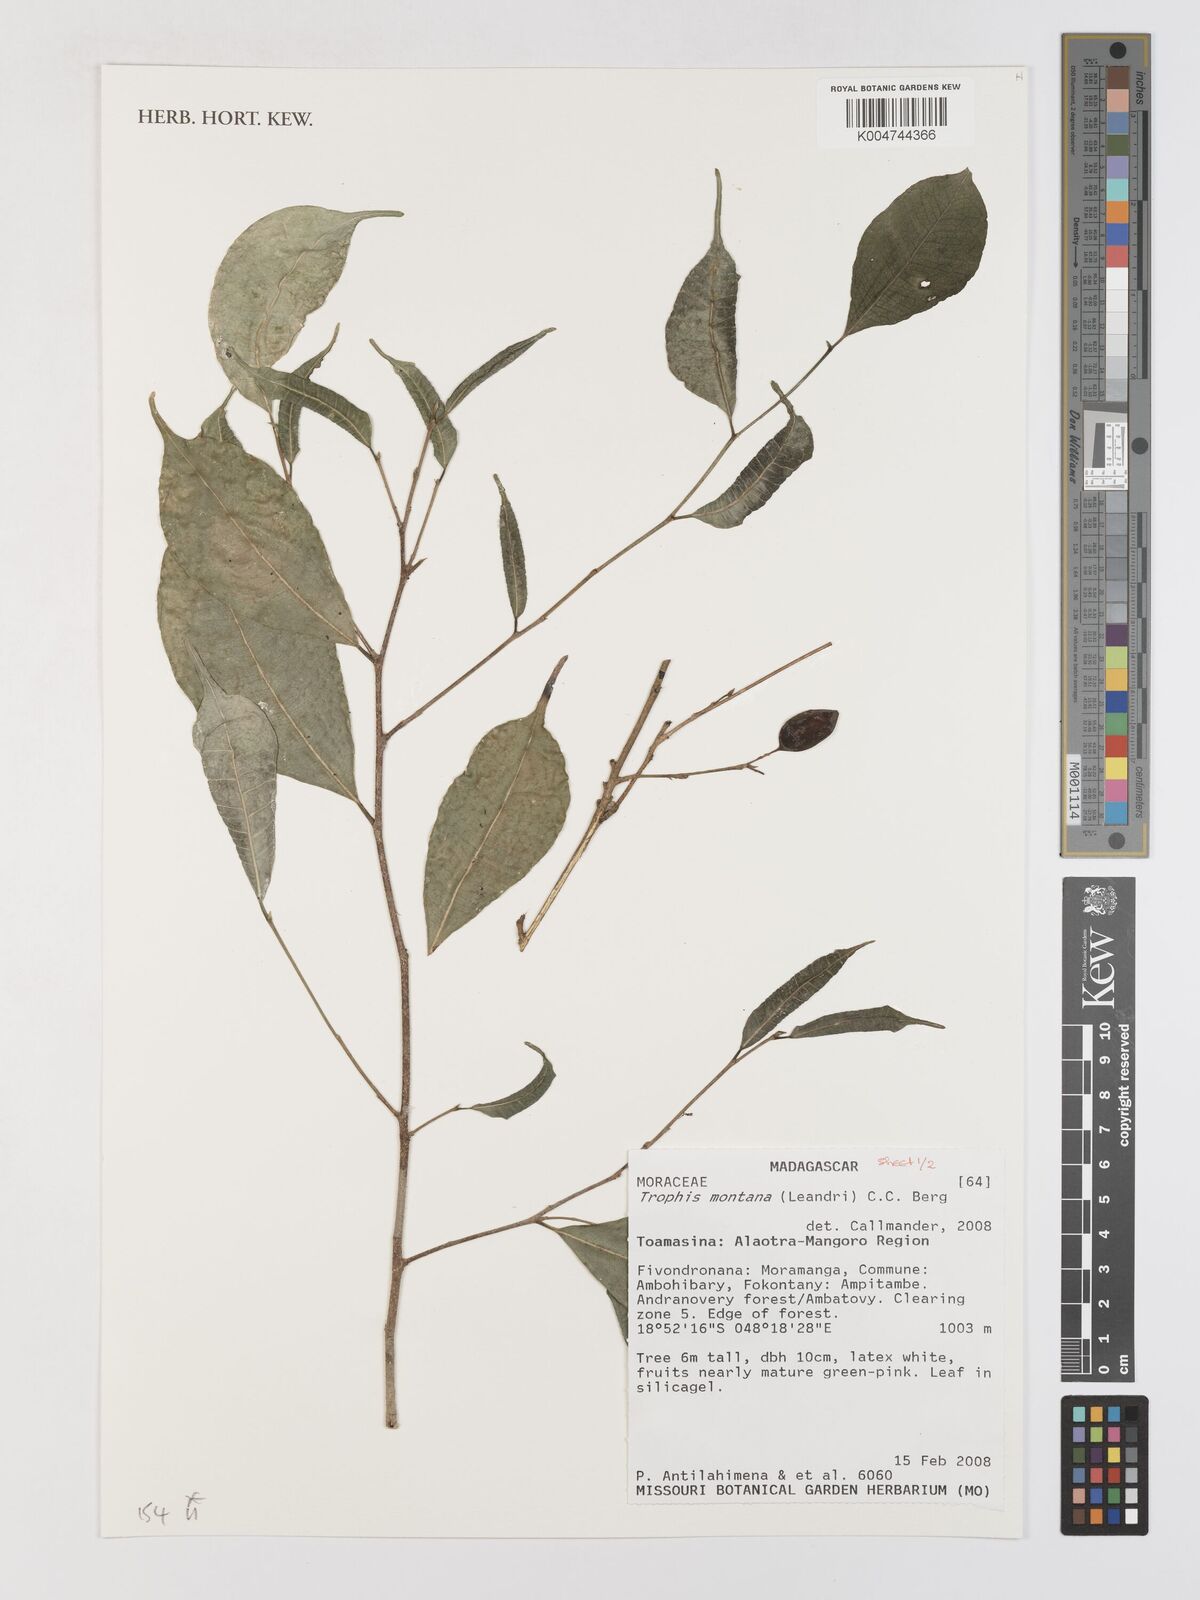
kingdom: Plantae
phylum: Tracheophyta
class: Magnoliopsida
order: Rosales
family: Moraceae
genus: Maillardia
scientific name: Maillardia montana
